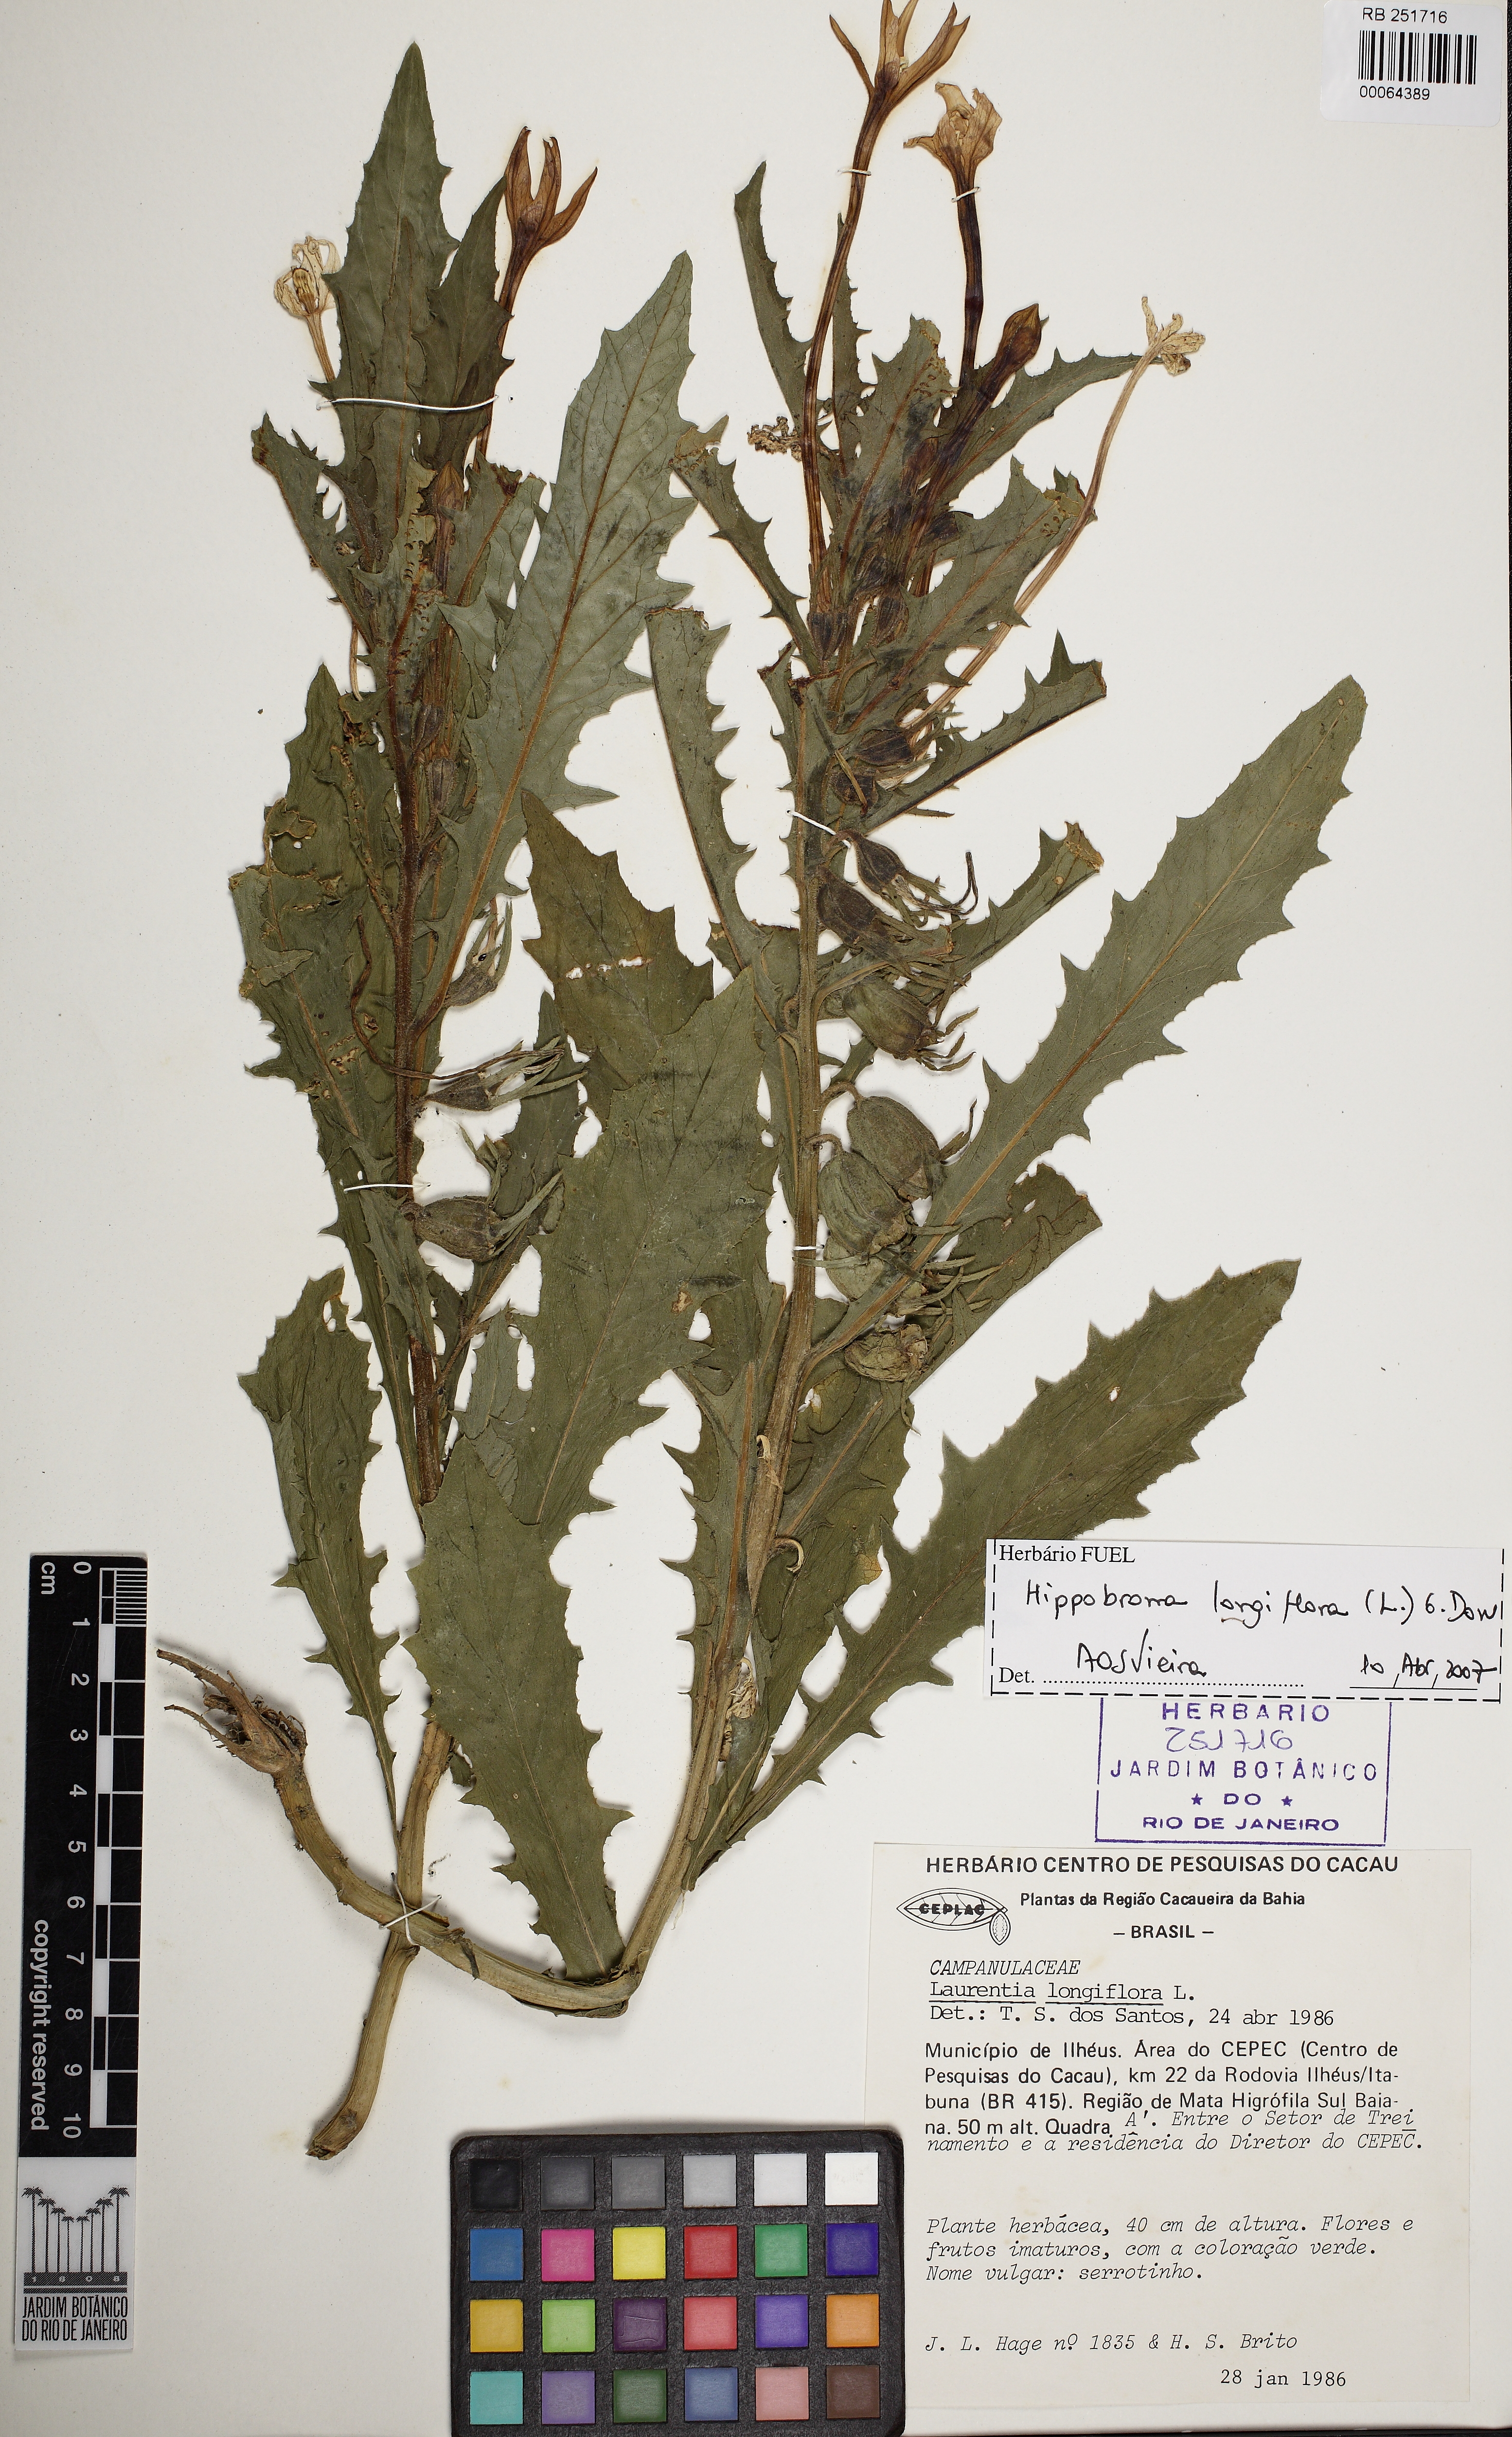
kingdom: Plantae
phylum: Tracheophyta
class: Magnoliopsida
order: Asterales
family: Campanulaceae
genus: Hippobroma
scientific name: Hippobroma longiflora
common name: Madamfate
